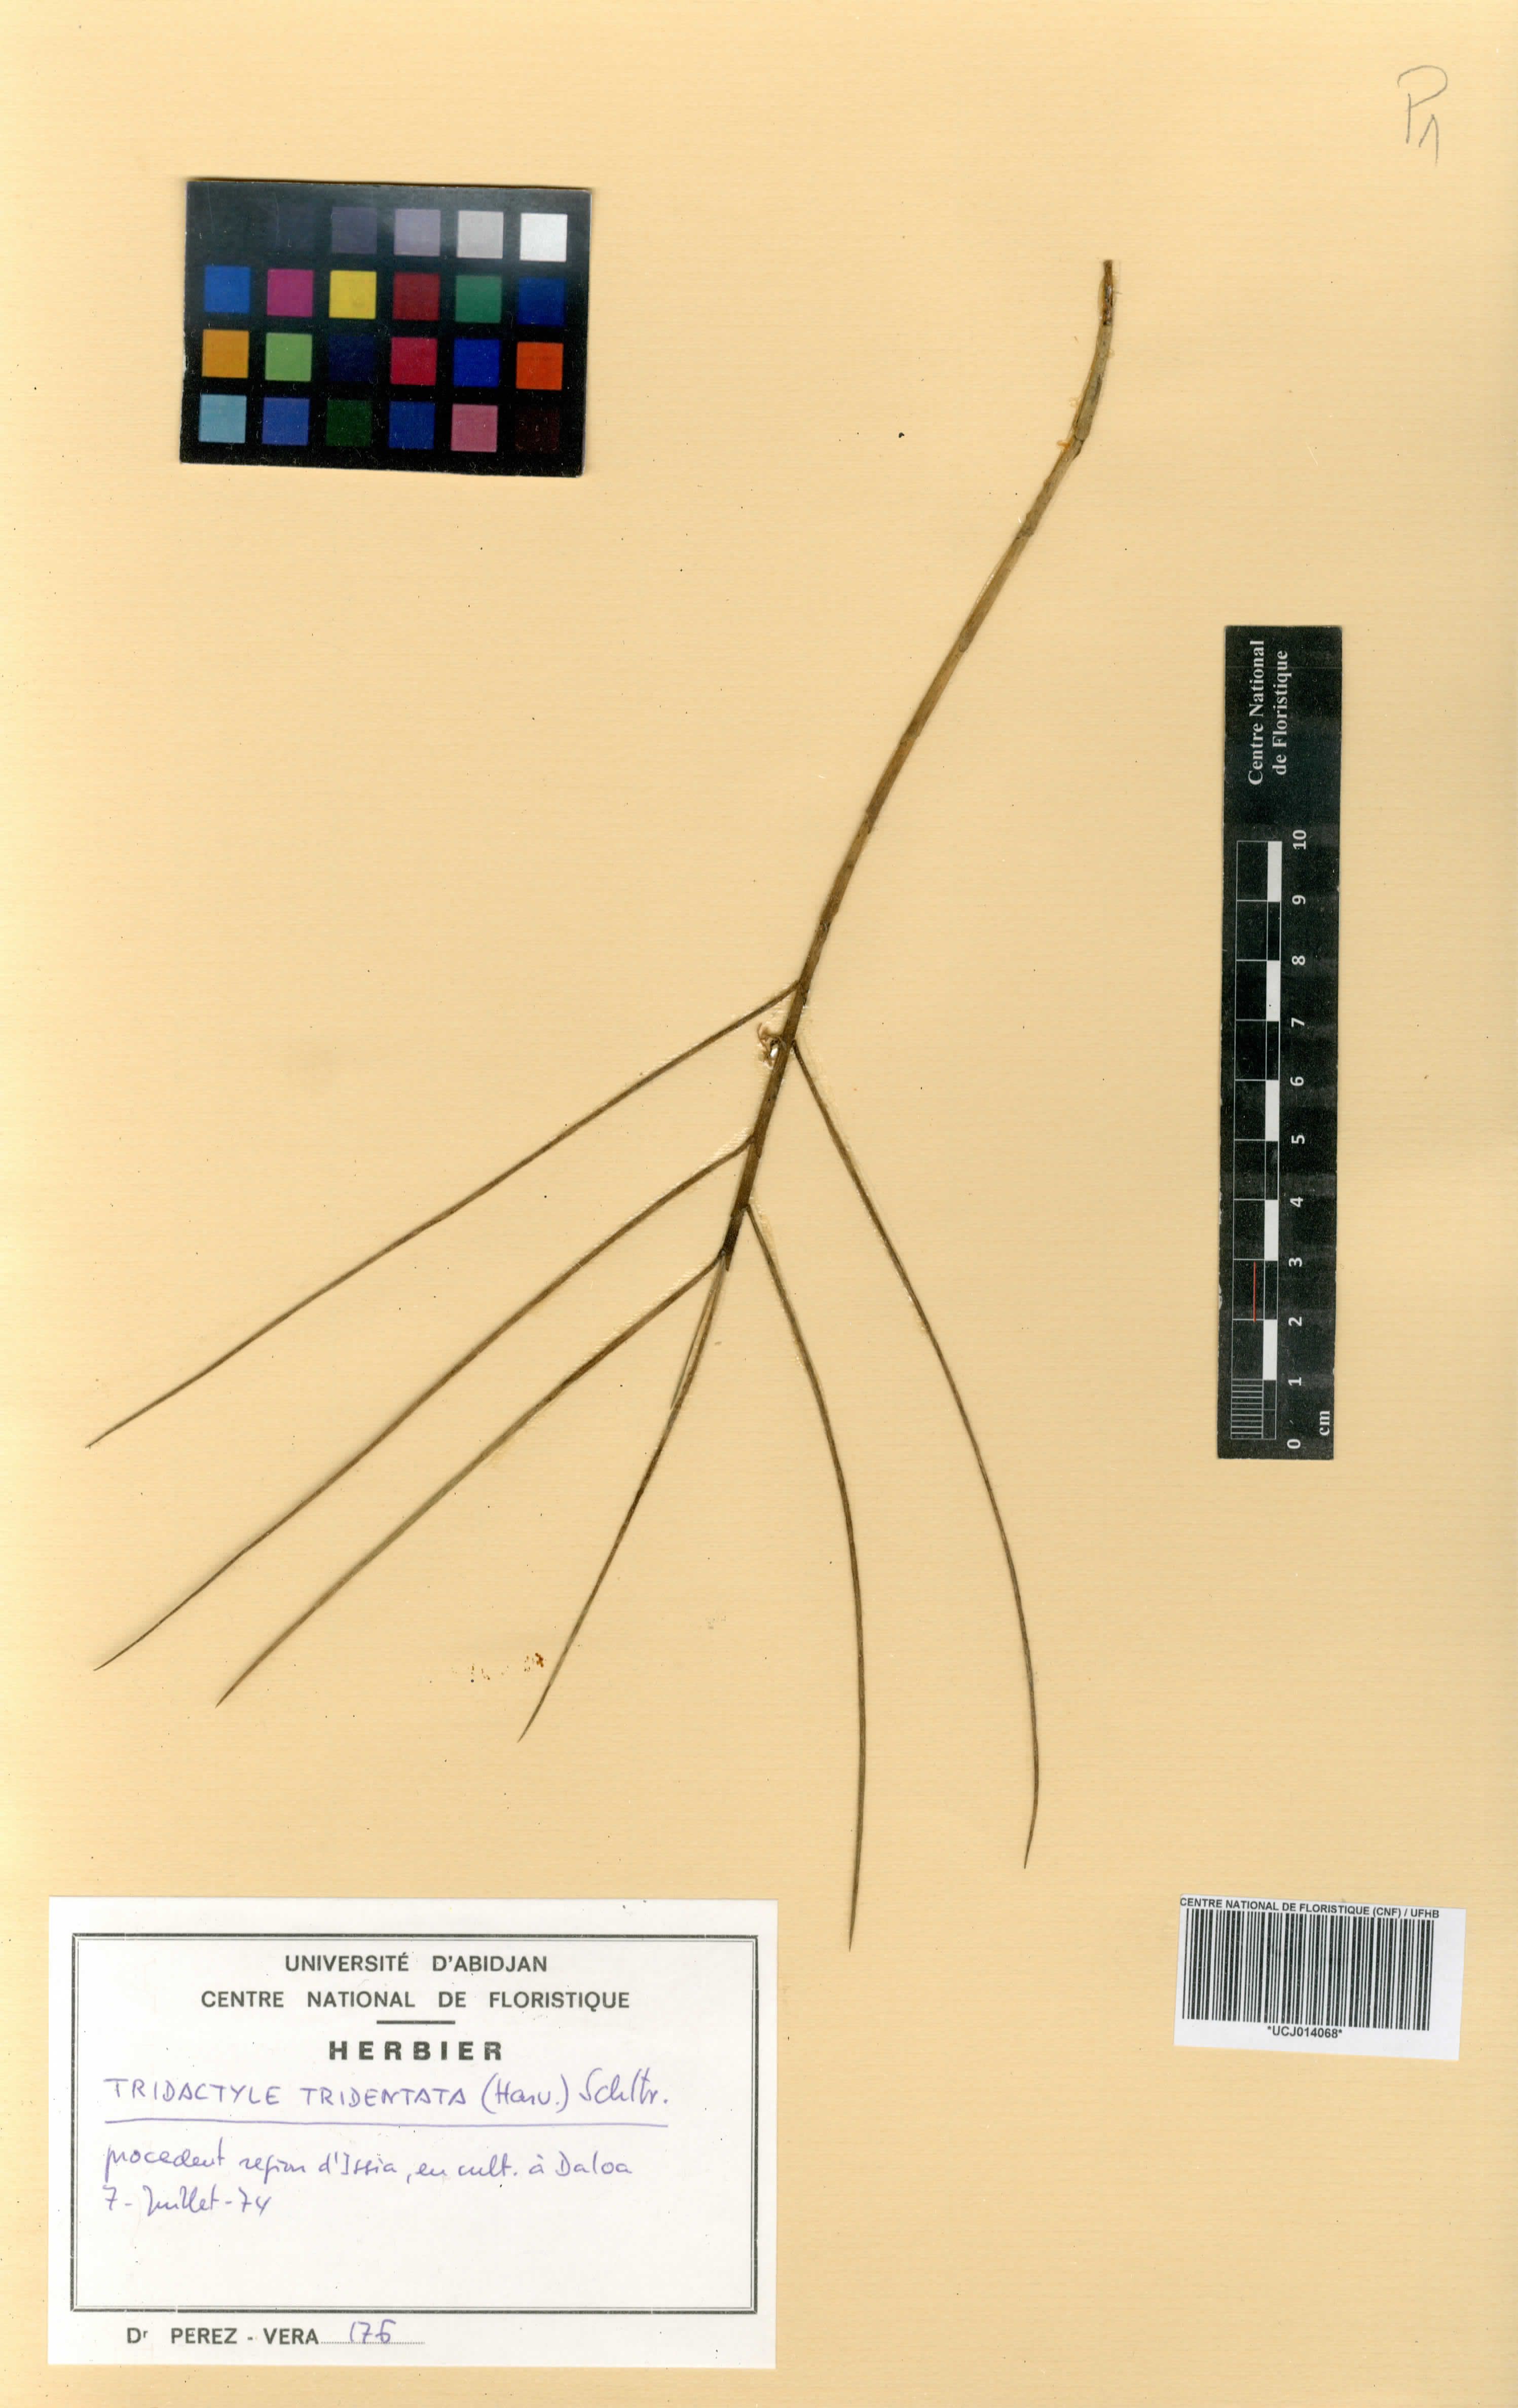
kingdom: Plantae
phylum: Tracheophyta
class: Liliopsida
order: Asparagales
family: Orchidaceae
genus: Tridactyle
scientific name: Tridactyle tridentata
